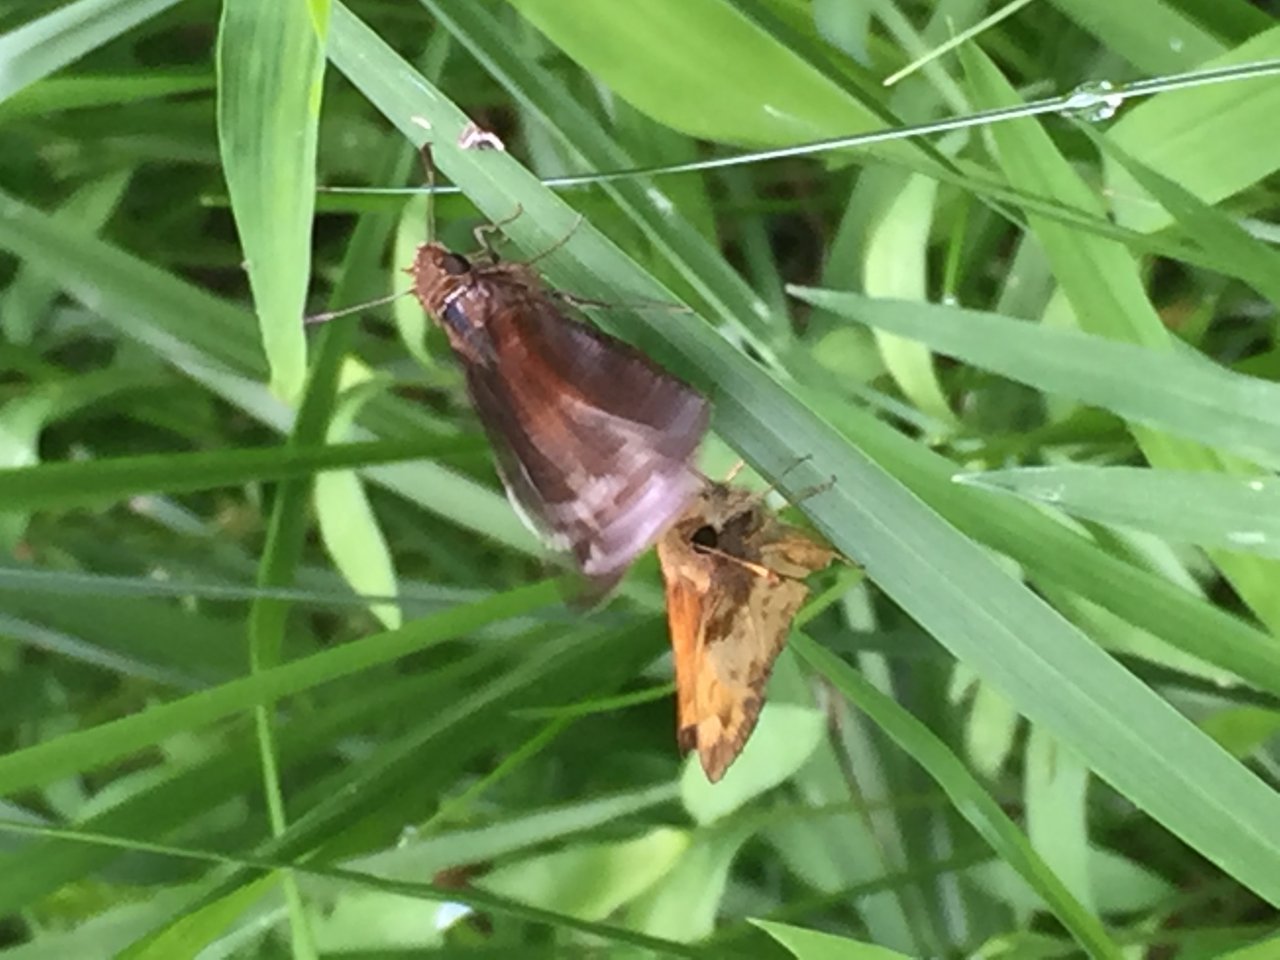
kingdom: Animalia
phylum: Arthropoda
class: Insecta
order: Lepidoptera
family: Hesperiidae
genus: Lon
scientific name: Lon zabulon
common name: Zabulon Skipper
